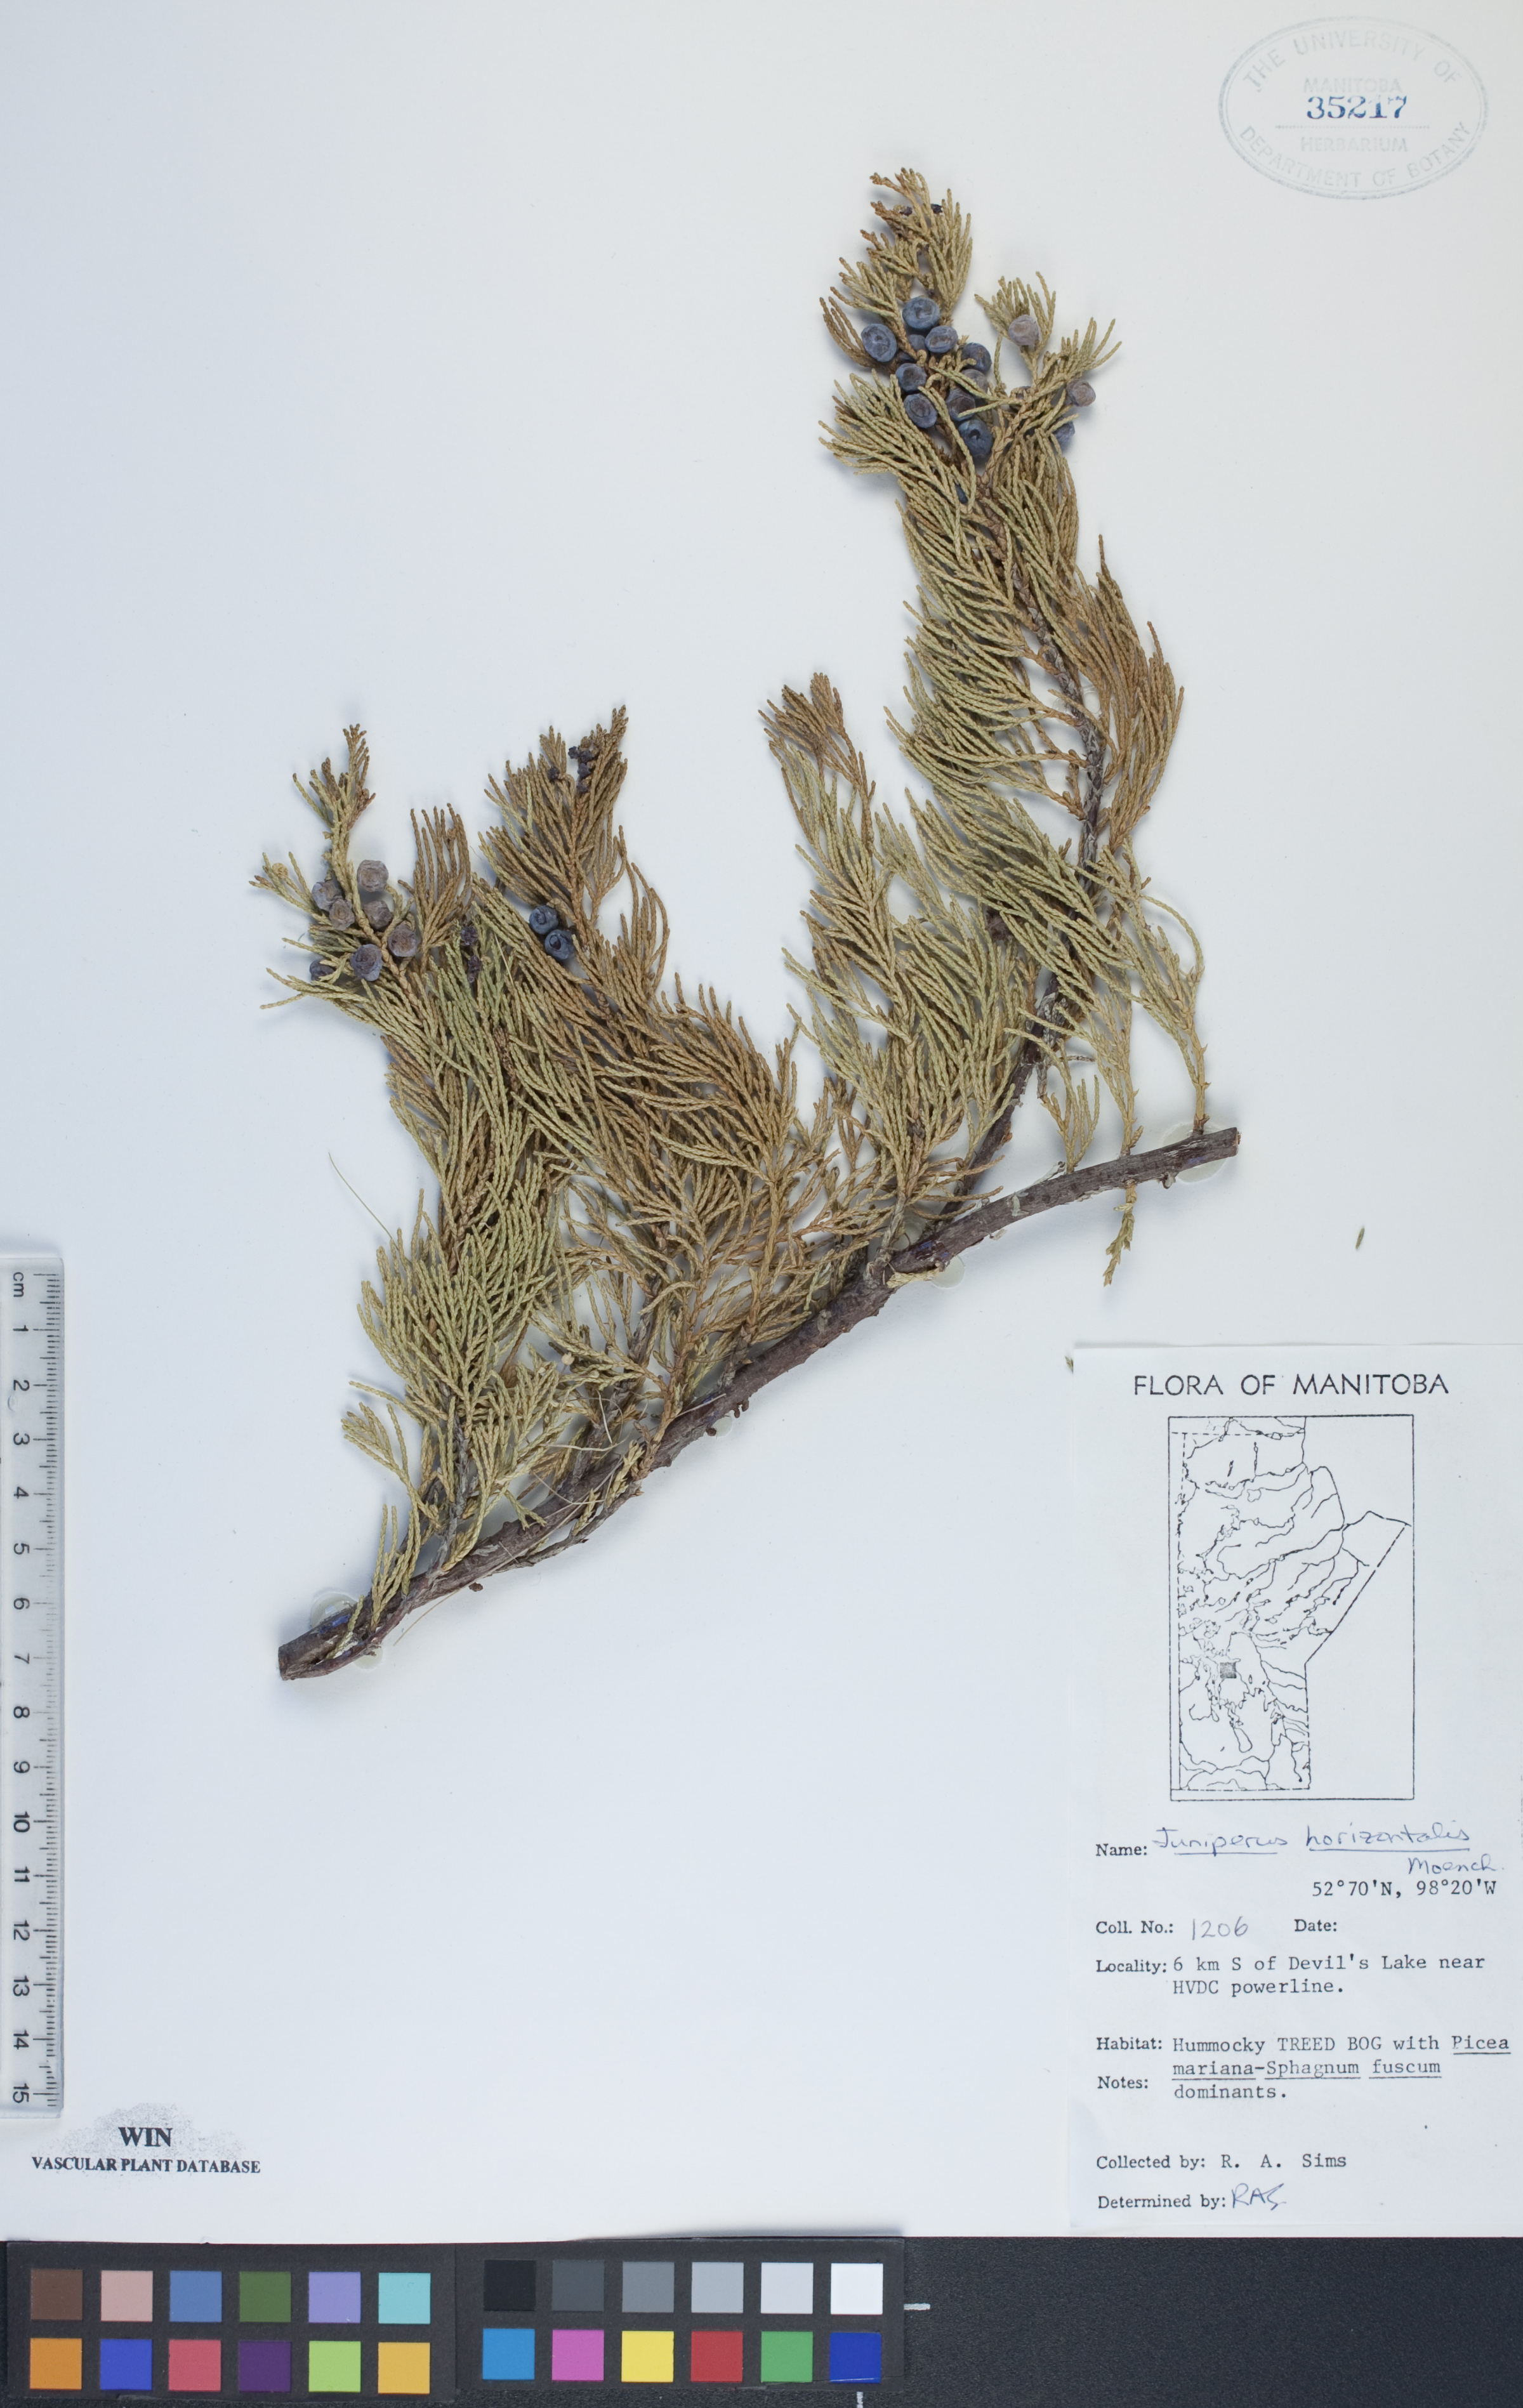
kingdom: Plantae
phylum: Tracheophyta
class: Pinopsida
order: Pinales
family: Cupressaceae
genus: Juniperus
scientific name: Juniperus horizontalis
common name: Creeping juniper
